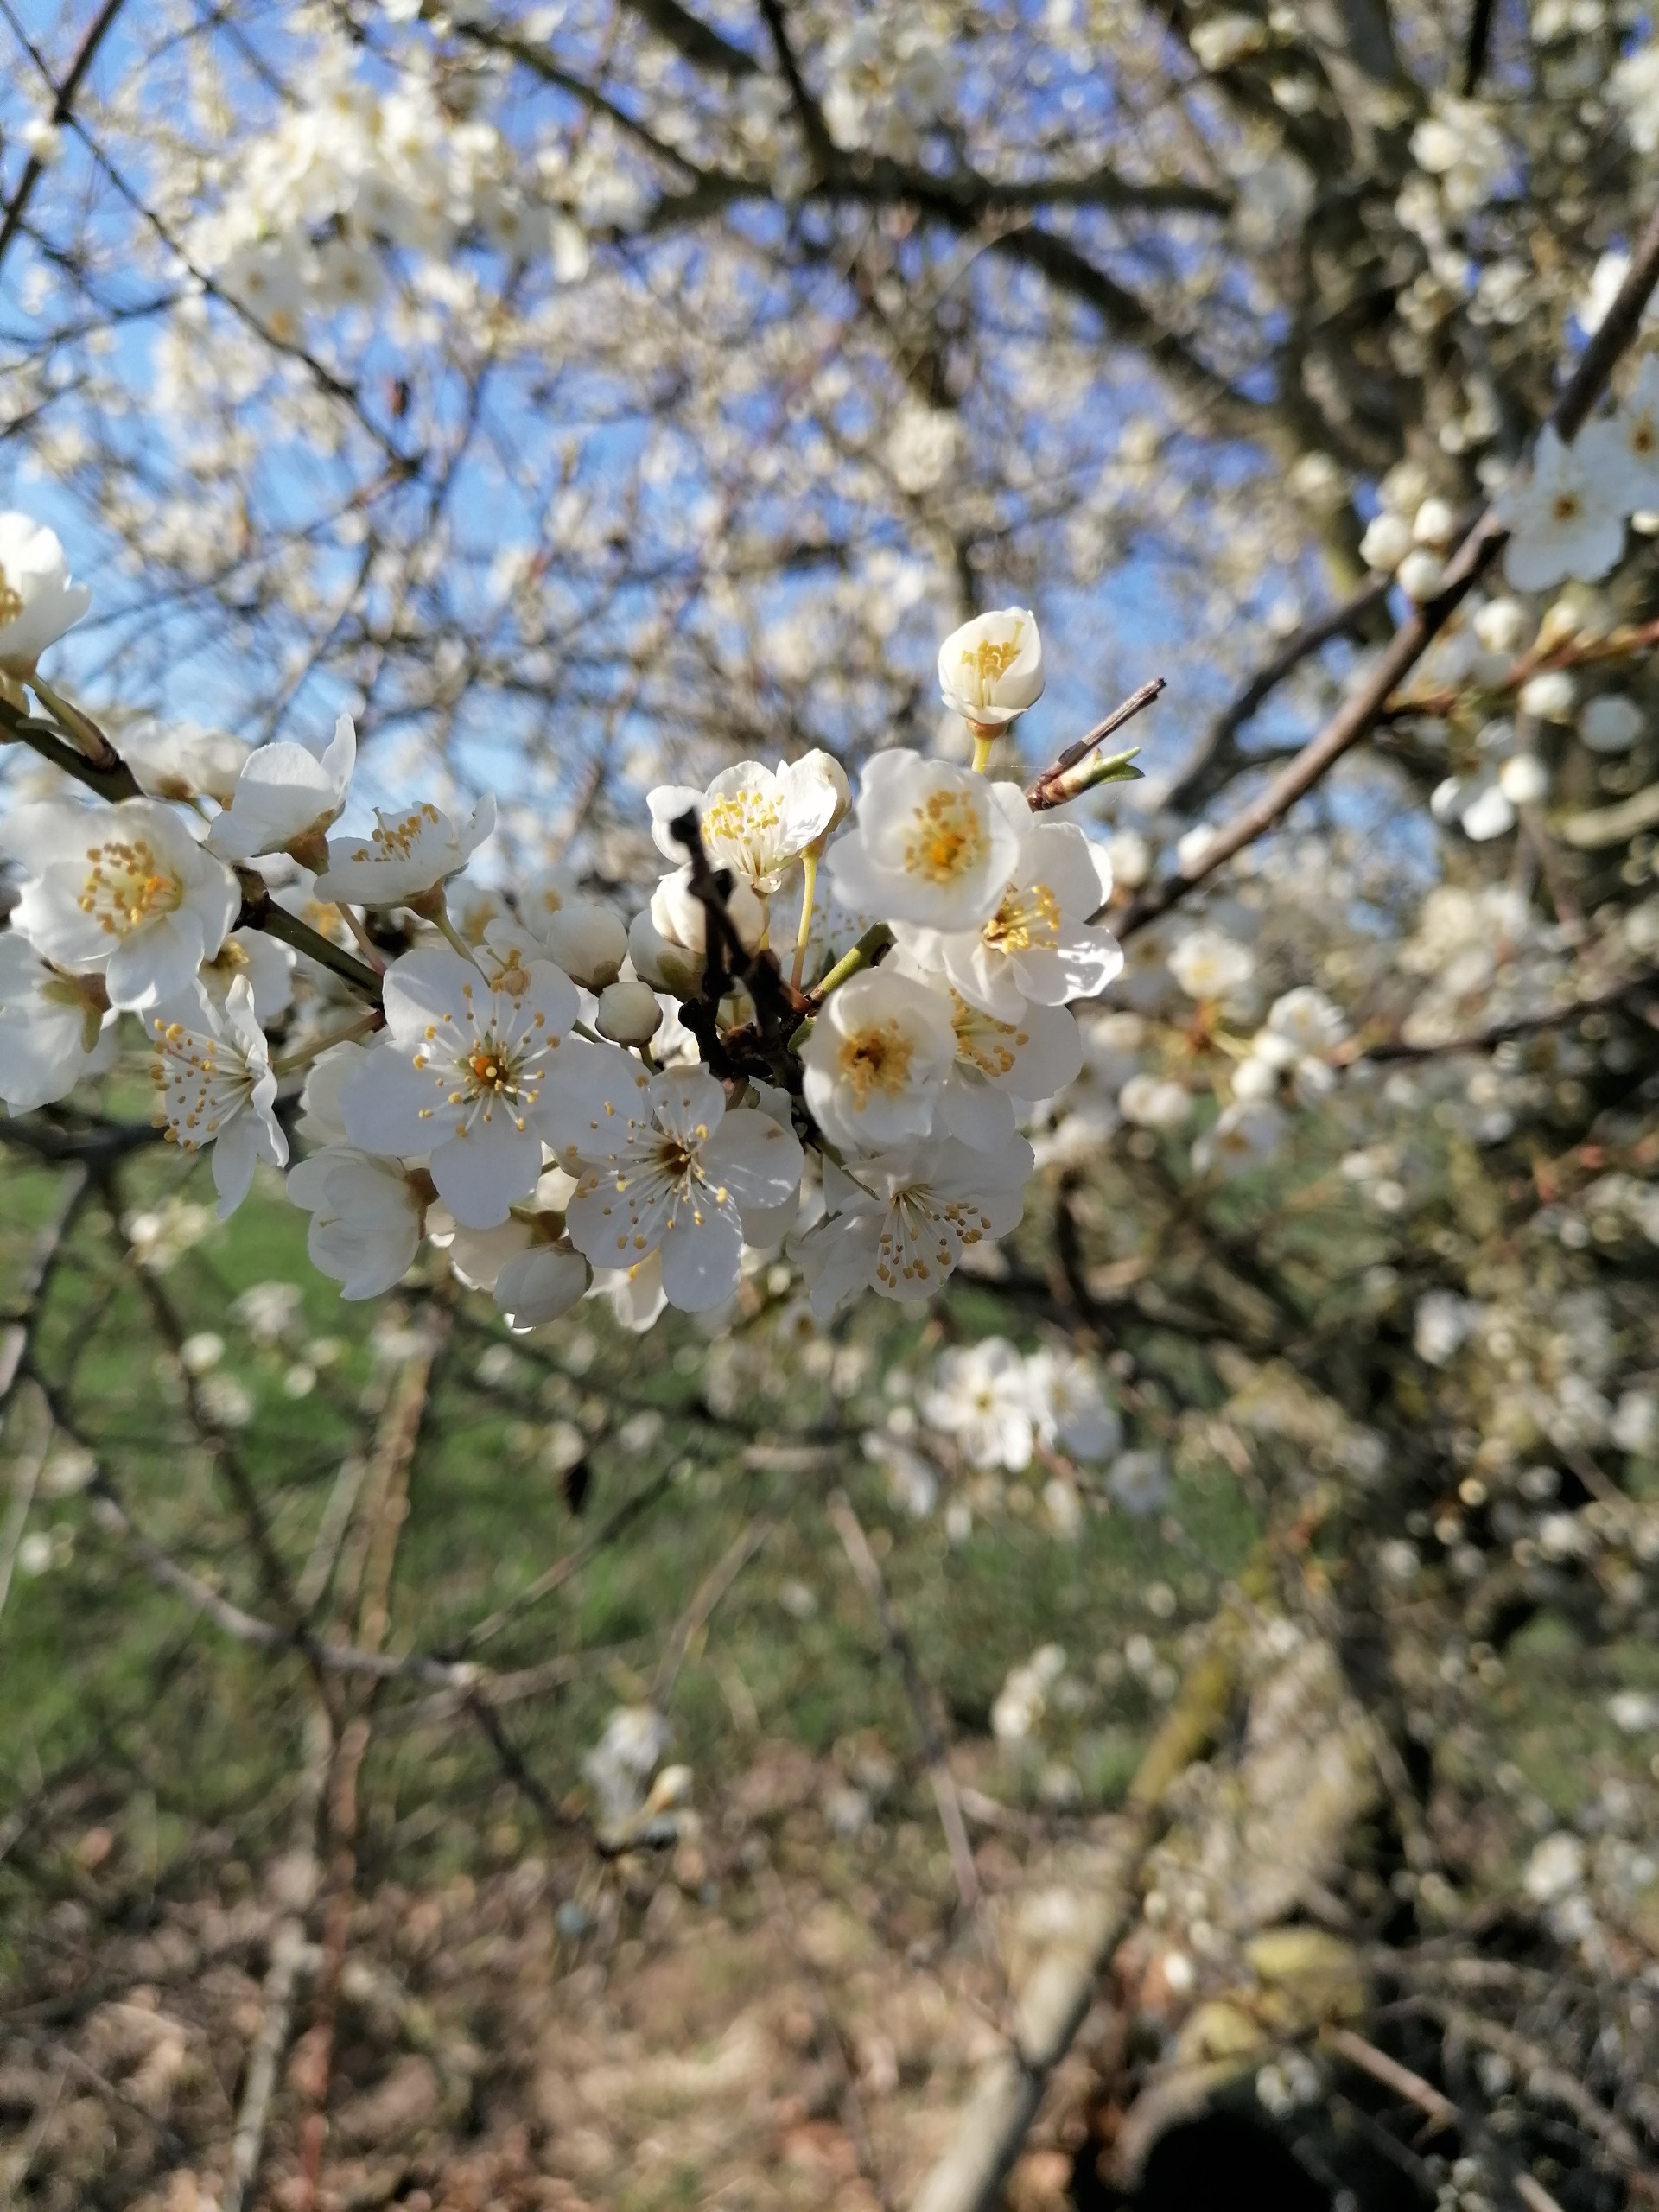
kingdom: Plantae
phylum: Tracheophyta
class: Magnoliopsida
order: Rosales
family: Rosaceae
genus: Prunus
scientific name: Prunus cerasifera
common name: Mirabel
